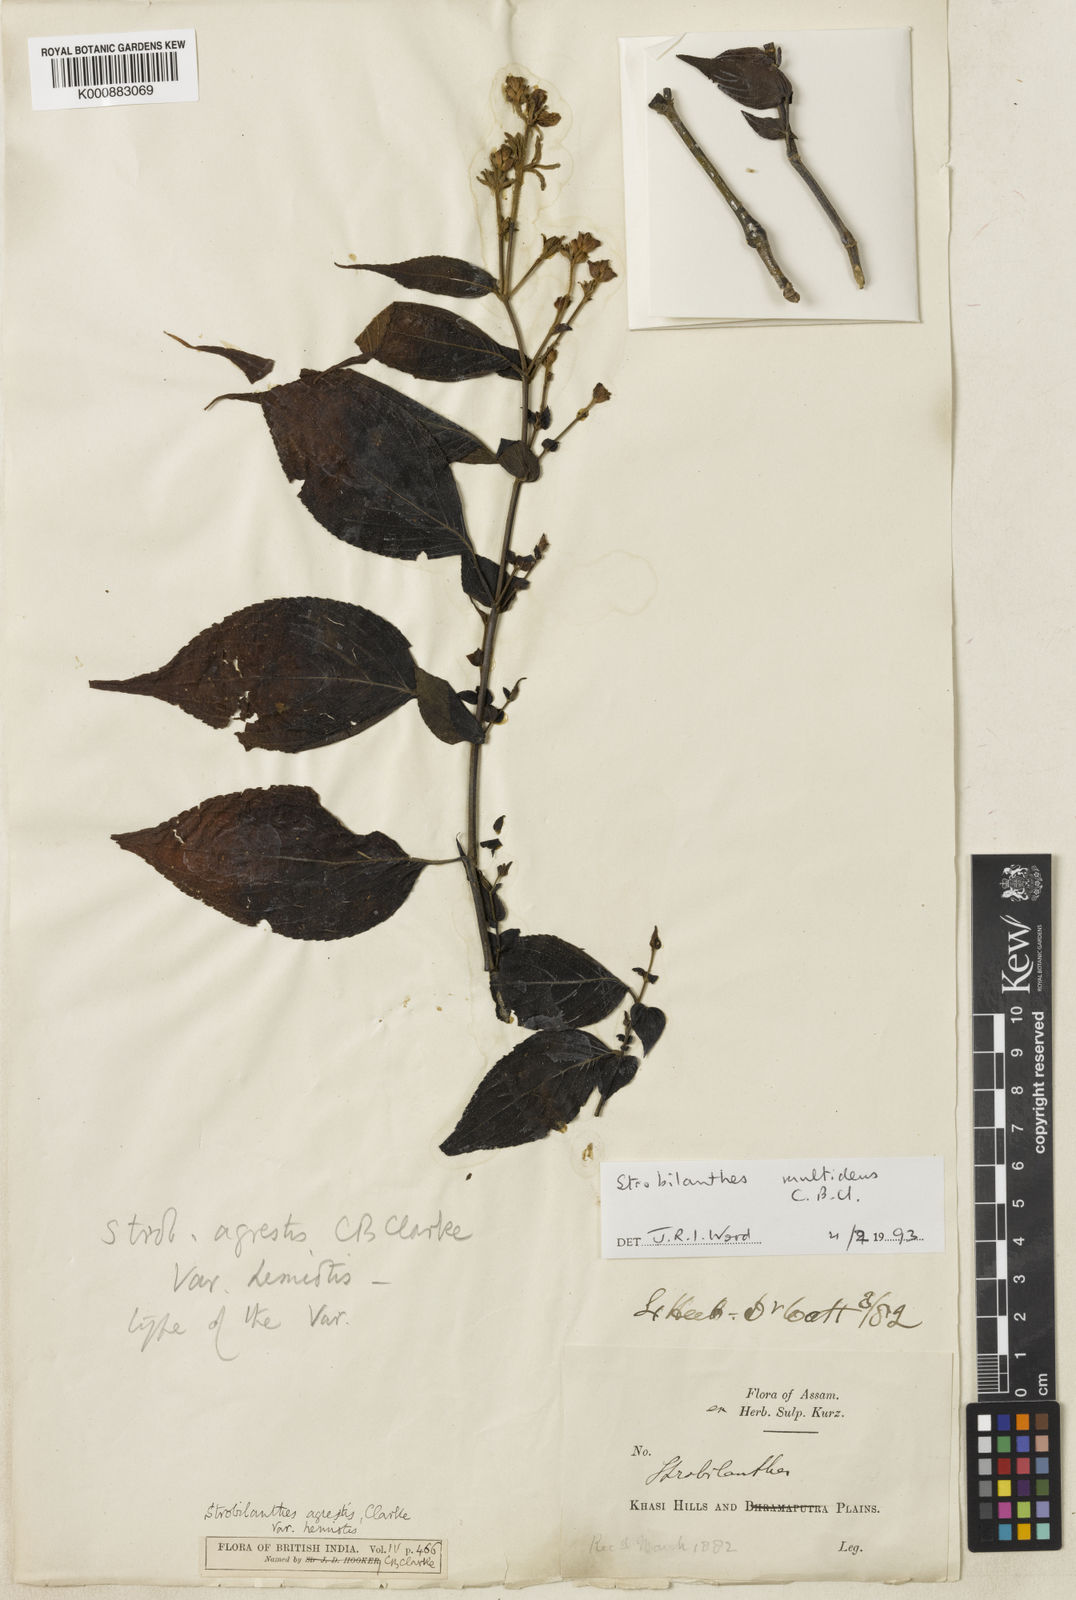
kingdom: Plantae
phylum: Tracheophyta
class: Magnoliopsida
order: Lamiales
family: Acanthaceae
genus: Strobilanthes
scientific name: Strobilanthes multidens
